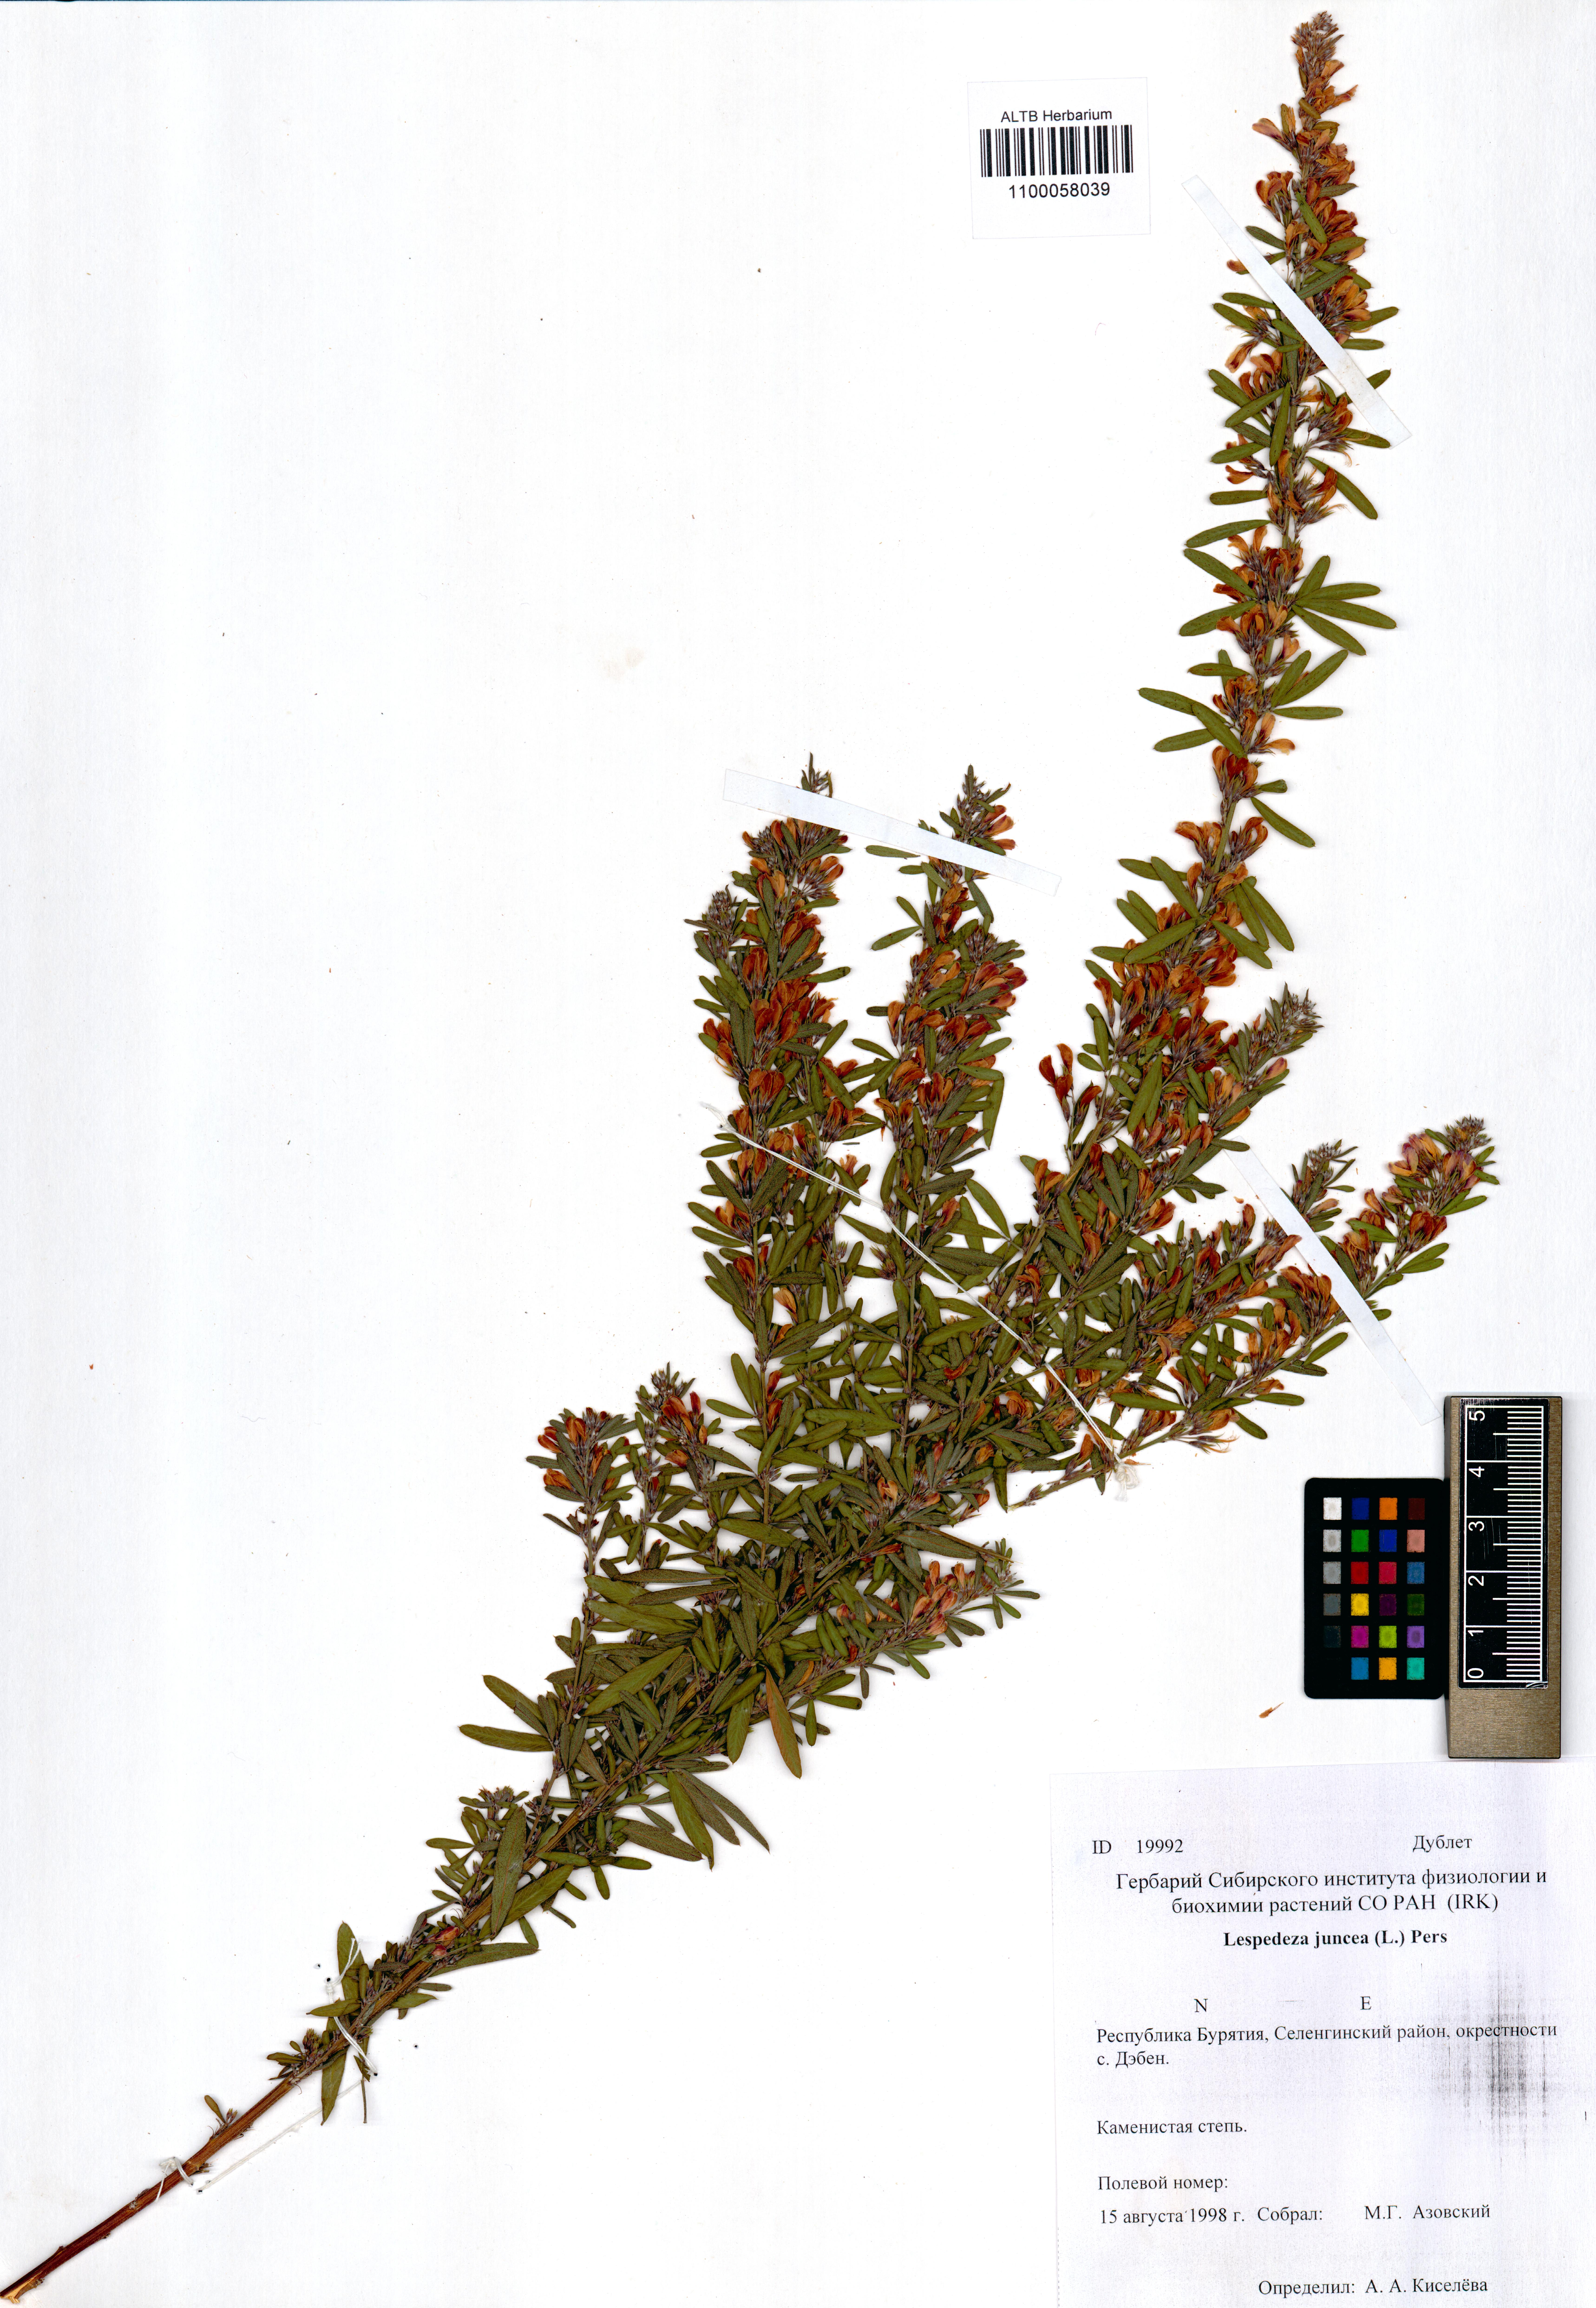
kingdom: Plantae
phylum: Tracheophyta
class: Magnoliopsida
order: Fabales
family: Fabaceae
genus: Lespedeza
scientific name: Lespedeza juncea
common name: Siberian lespedeza
